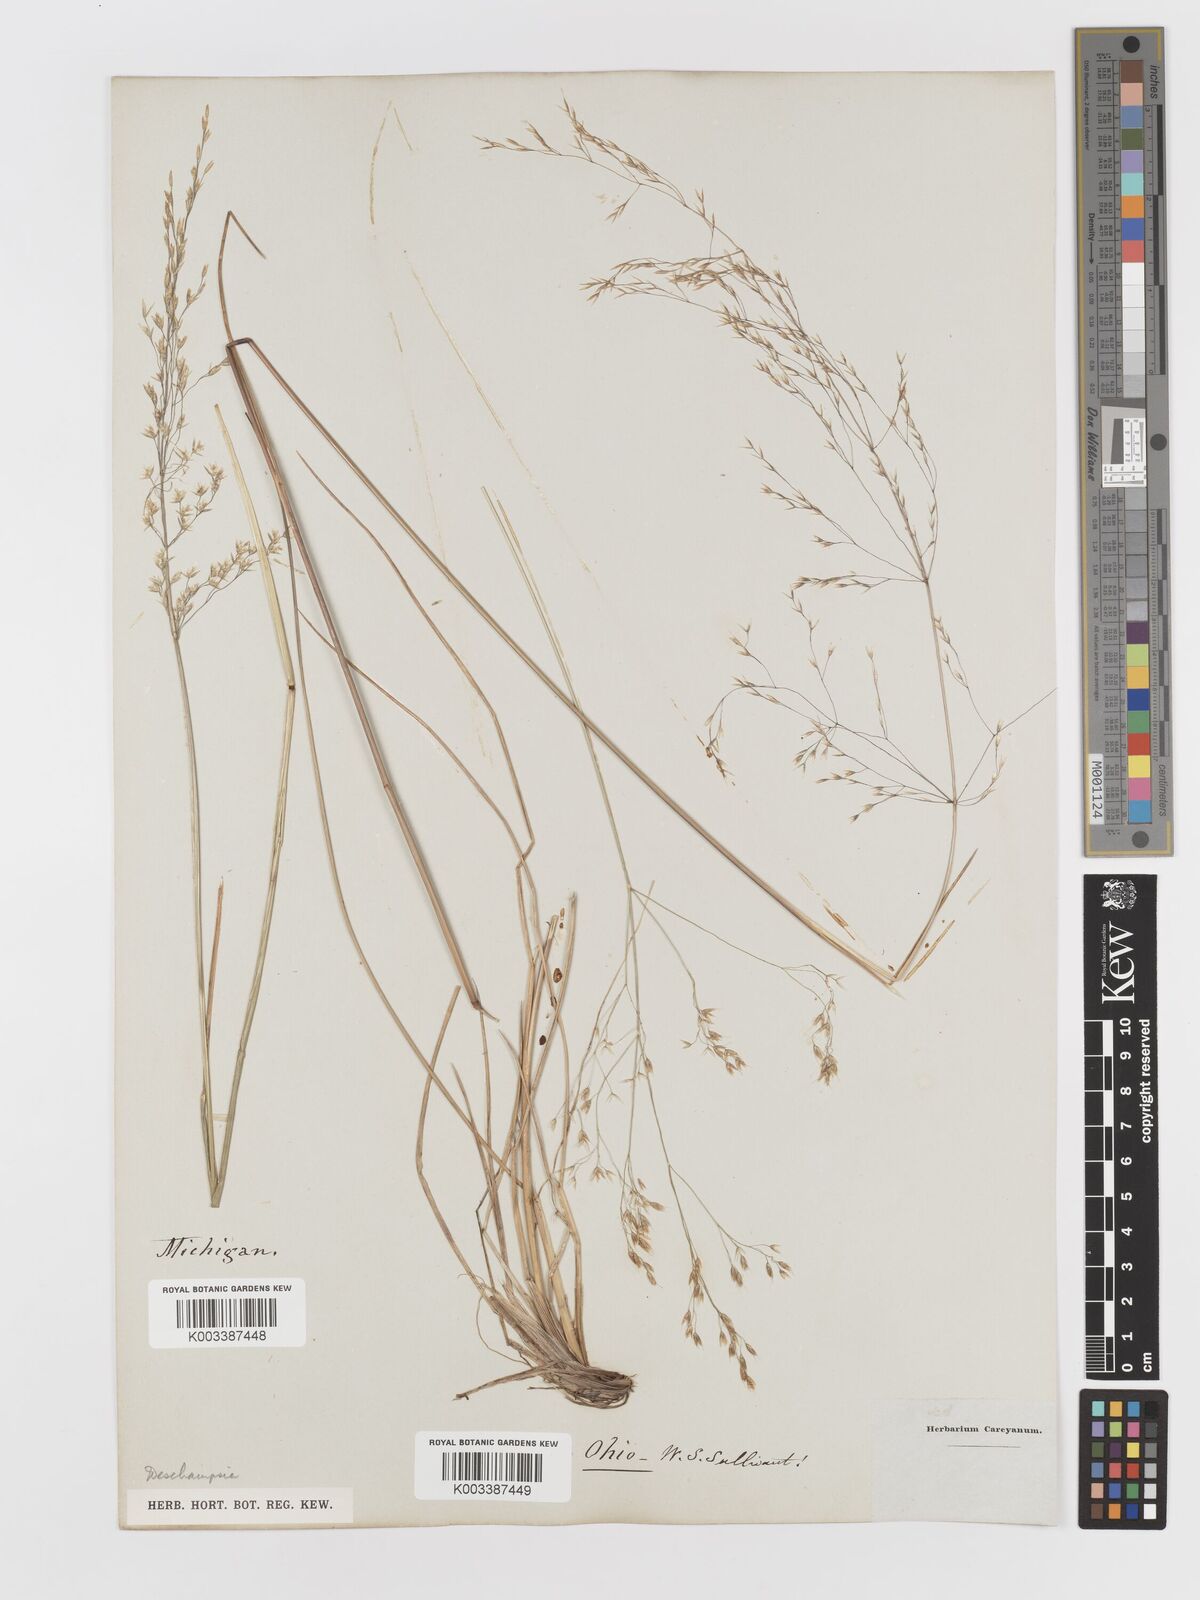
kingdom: Plantae
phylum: Tracheophyta
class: Liliopsida
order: Poales
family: Poaceae
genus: Deschampsia
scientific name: Deschampsia
